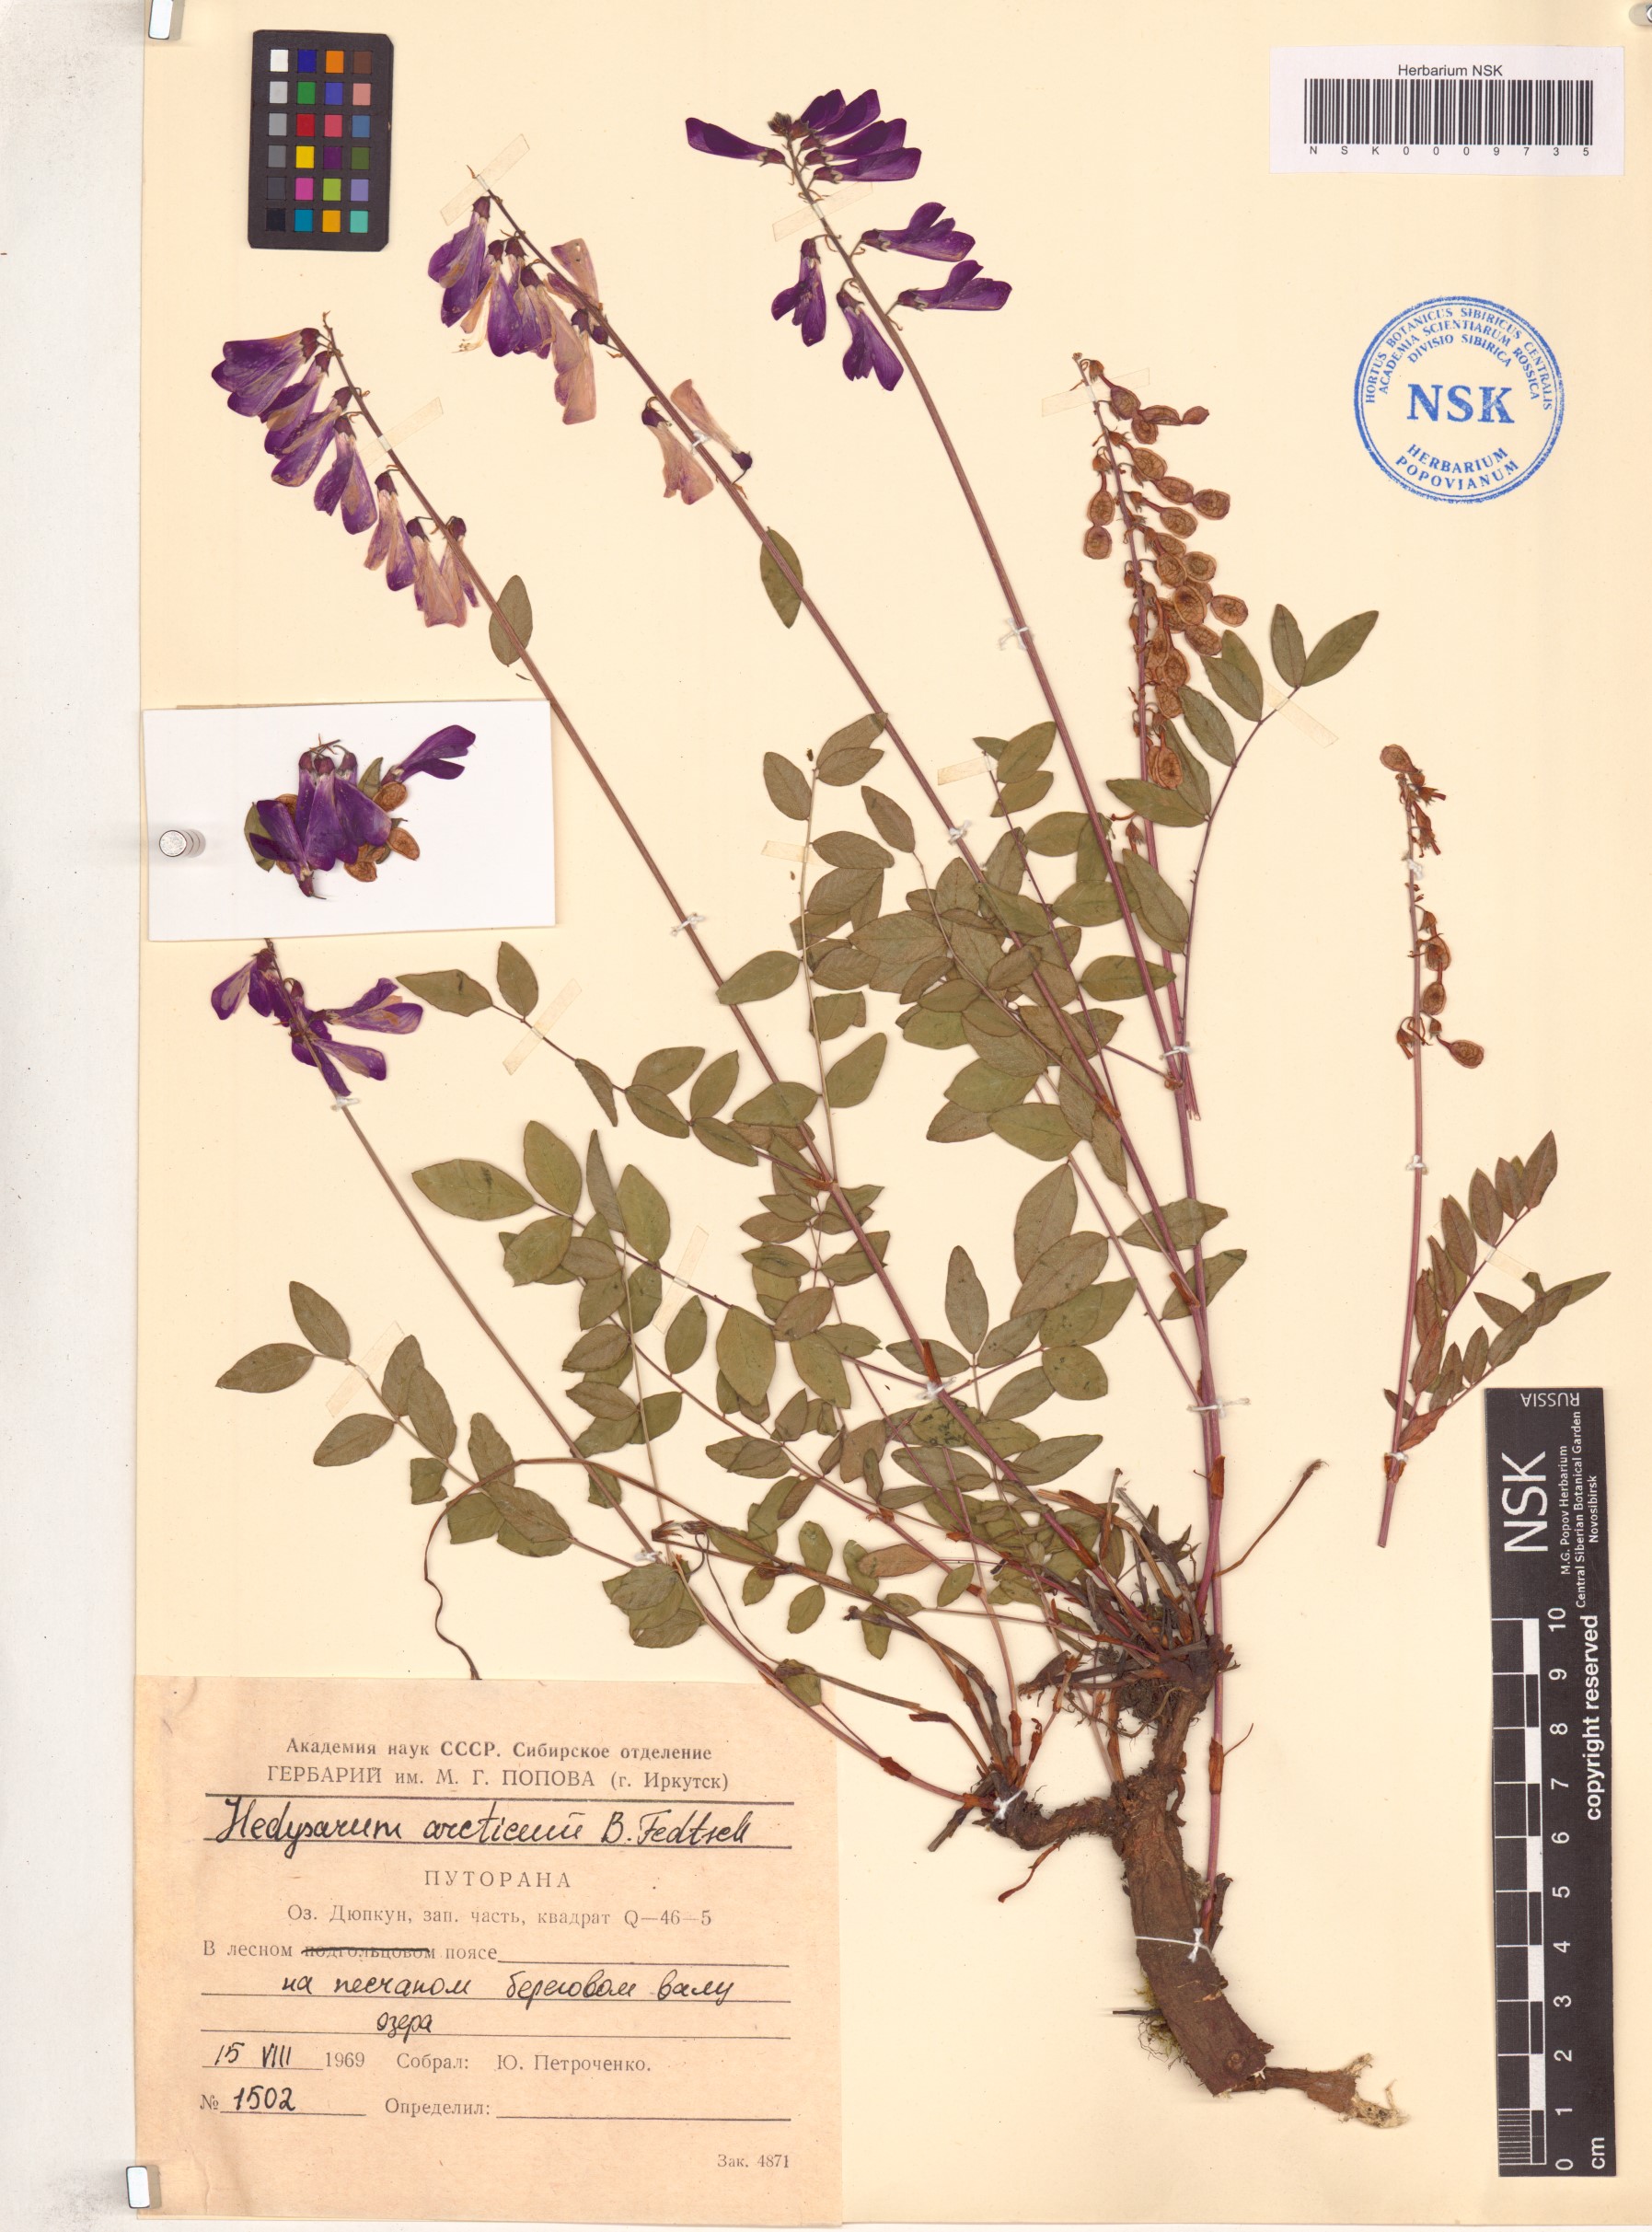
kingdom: Plantae
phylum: Tracheophyta
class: Magnoliopsida
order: Fabales
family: Fabaceae
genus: Hedysarum
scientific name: Hedysarum hedysaroides
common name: Alpine french-honeysuckle
